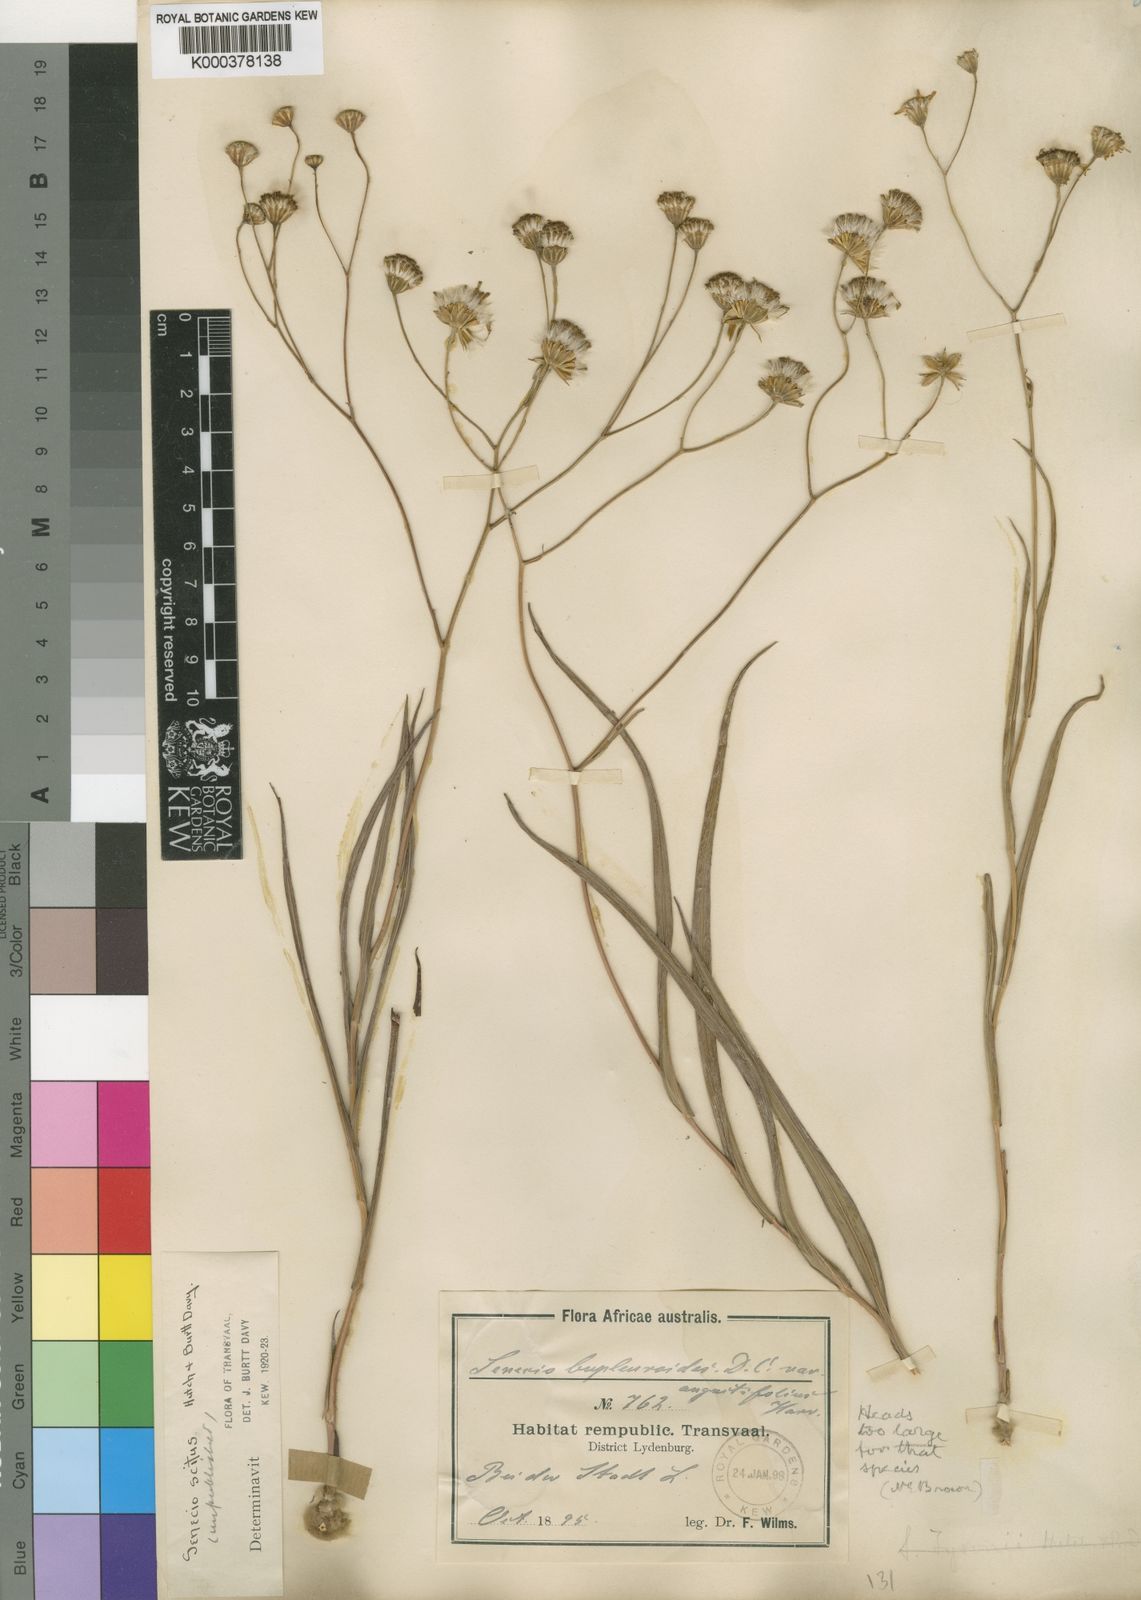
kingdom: Plantae
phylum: Tracheophyta
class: Magnoliopsida
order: Asterales
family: Asteraceae
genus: Senecio
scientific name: Senecio scitus
